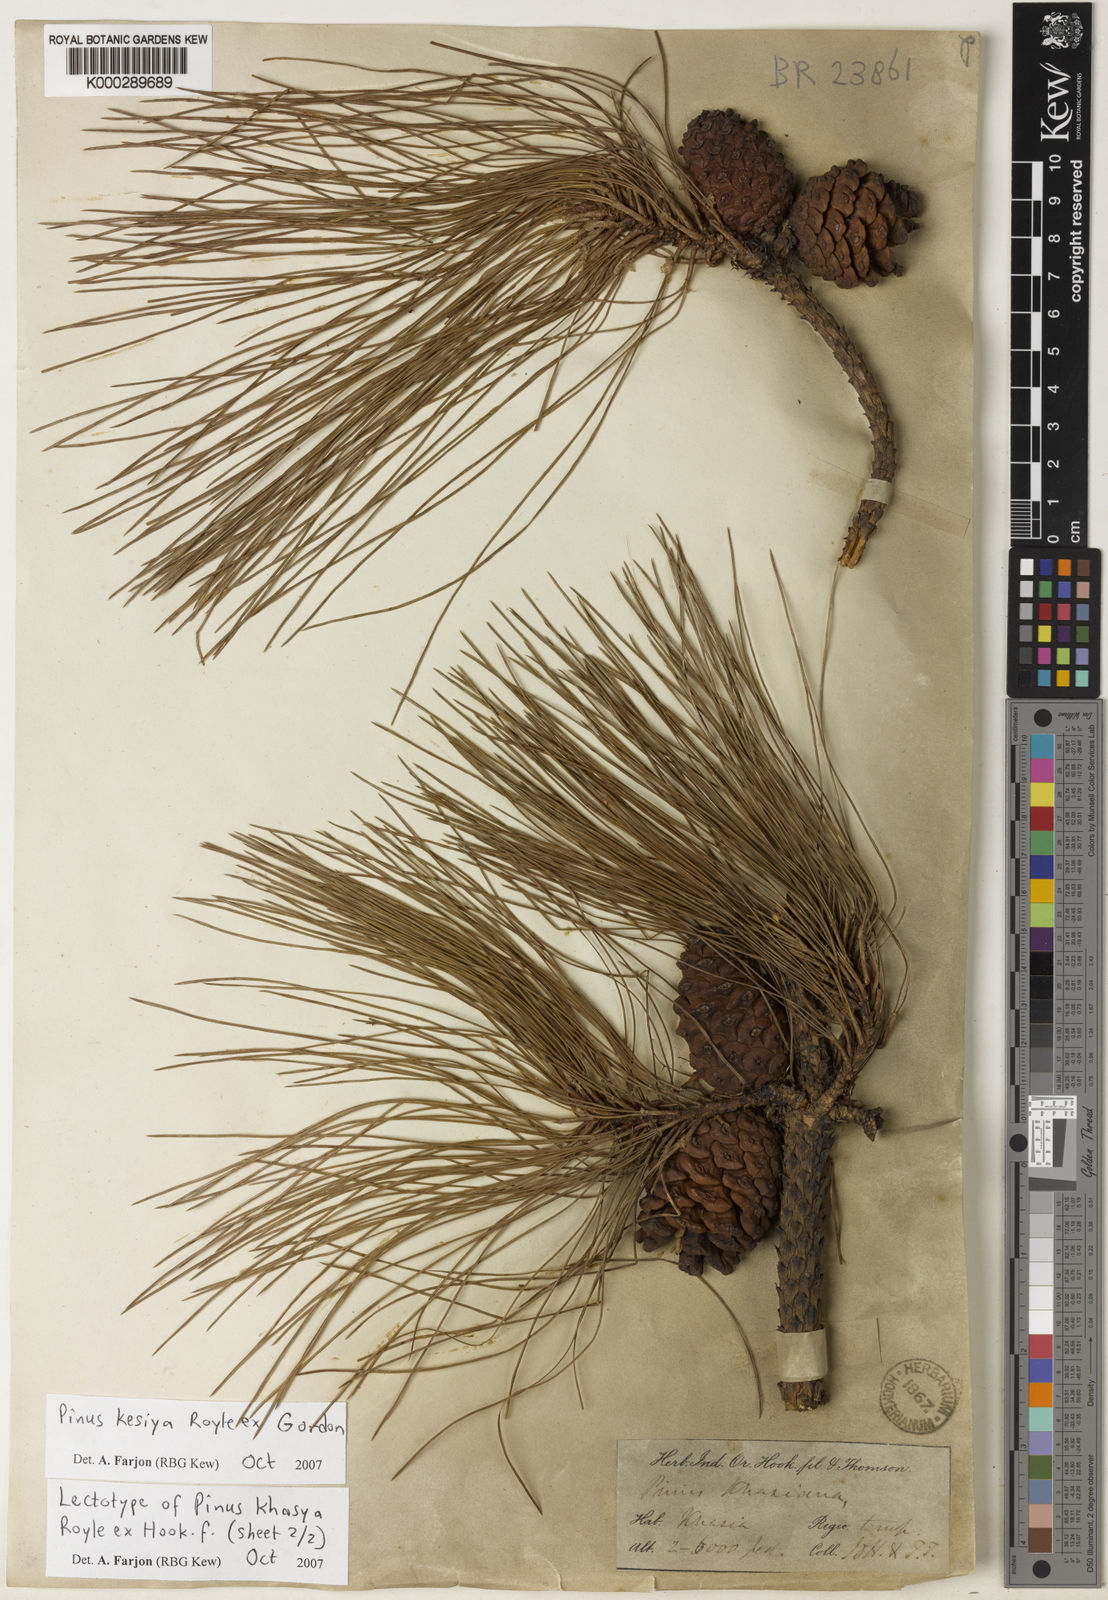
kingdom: Plantae
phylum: Tracheophyta
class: Pinopsida
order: Pinales
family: Pinaceae
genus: Pinus
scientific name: Pinus kesiya
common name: Benguet pine
